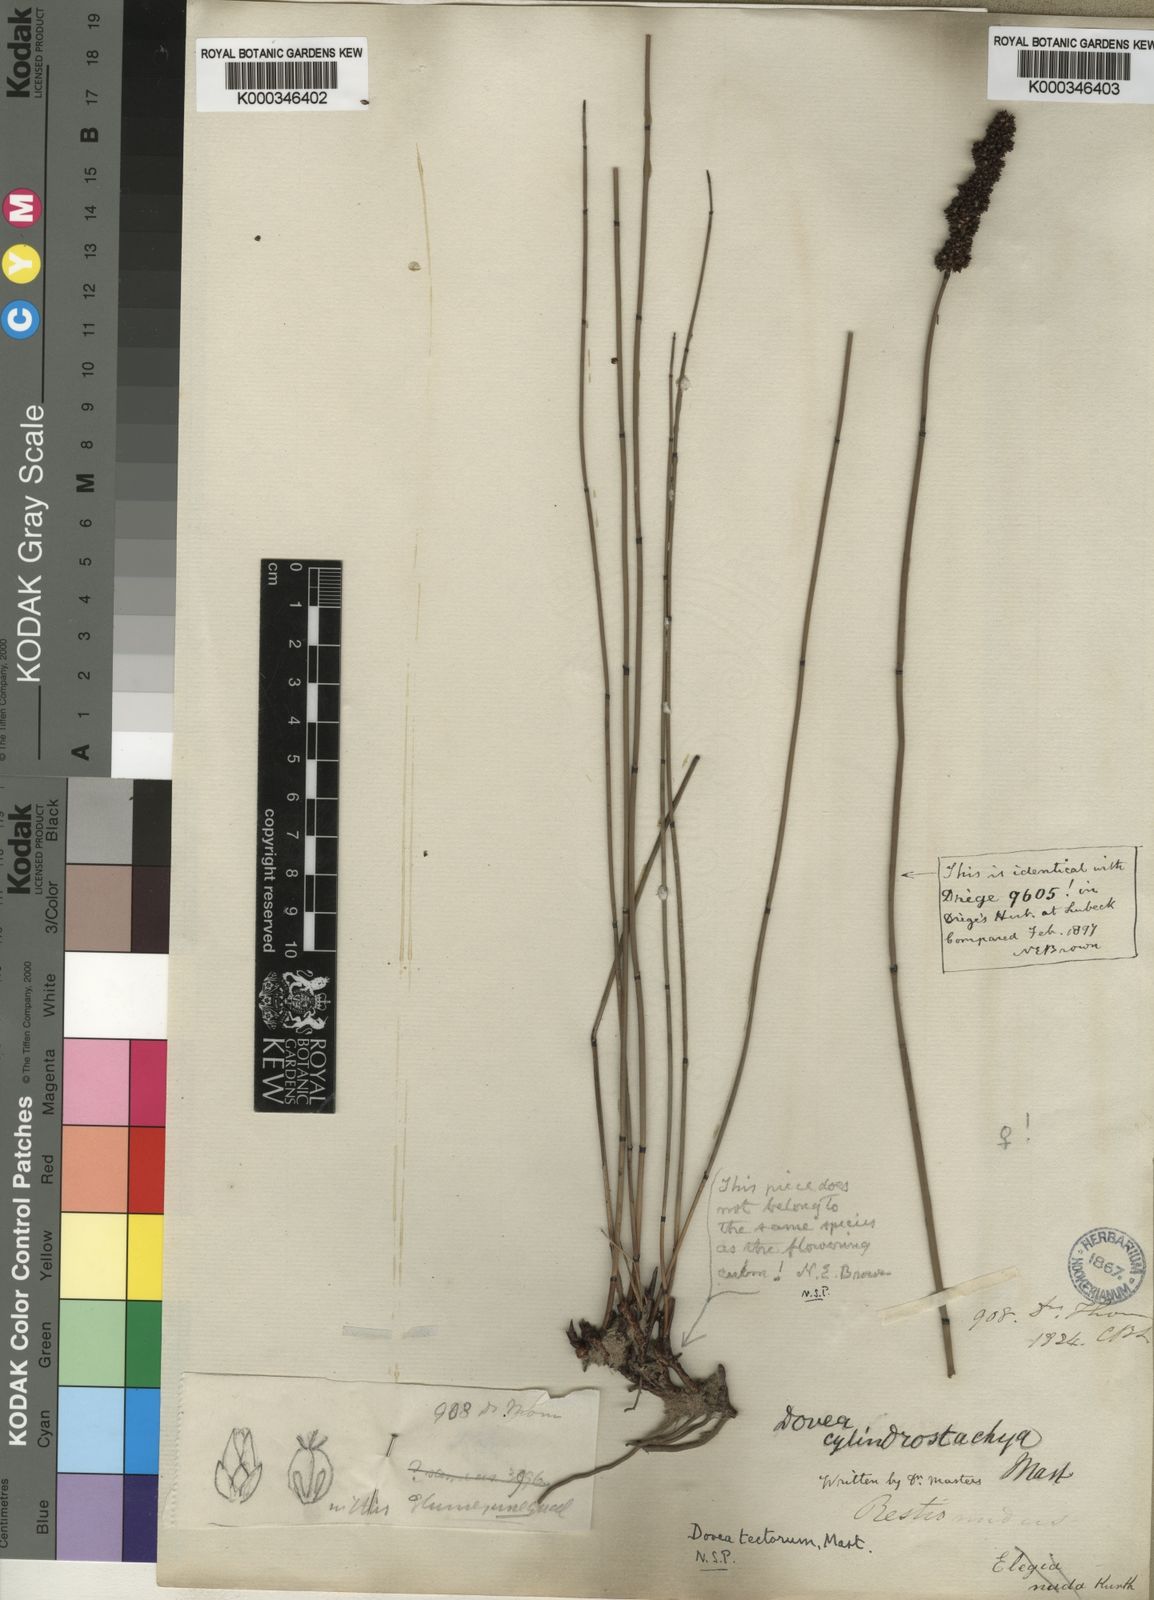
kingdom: Plantae
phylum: Tracheophyta
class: Liliopsida
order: Poales
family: Restionaceae
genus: Elegia
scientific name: Elegia tectorum
